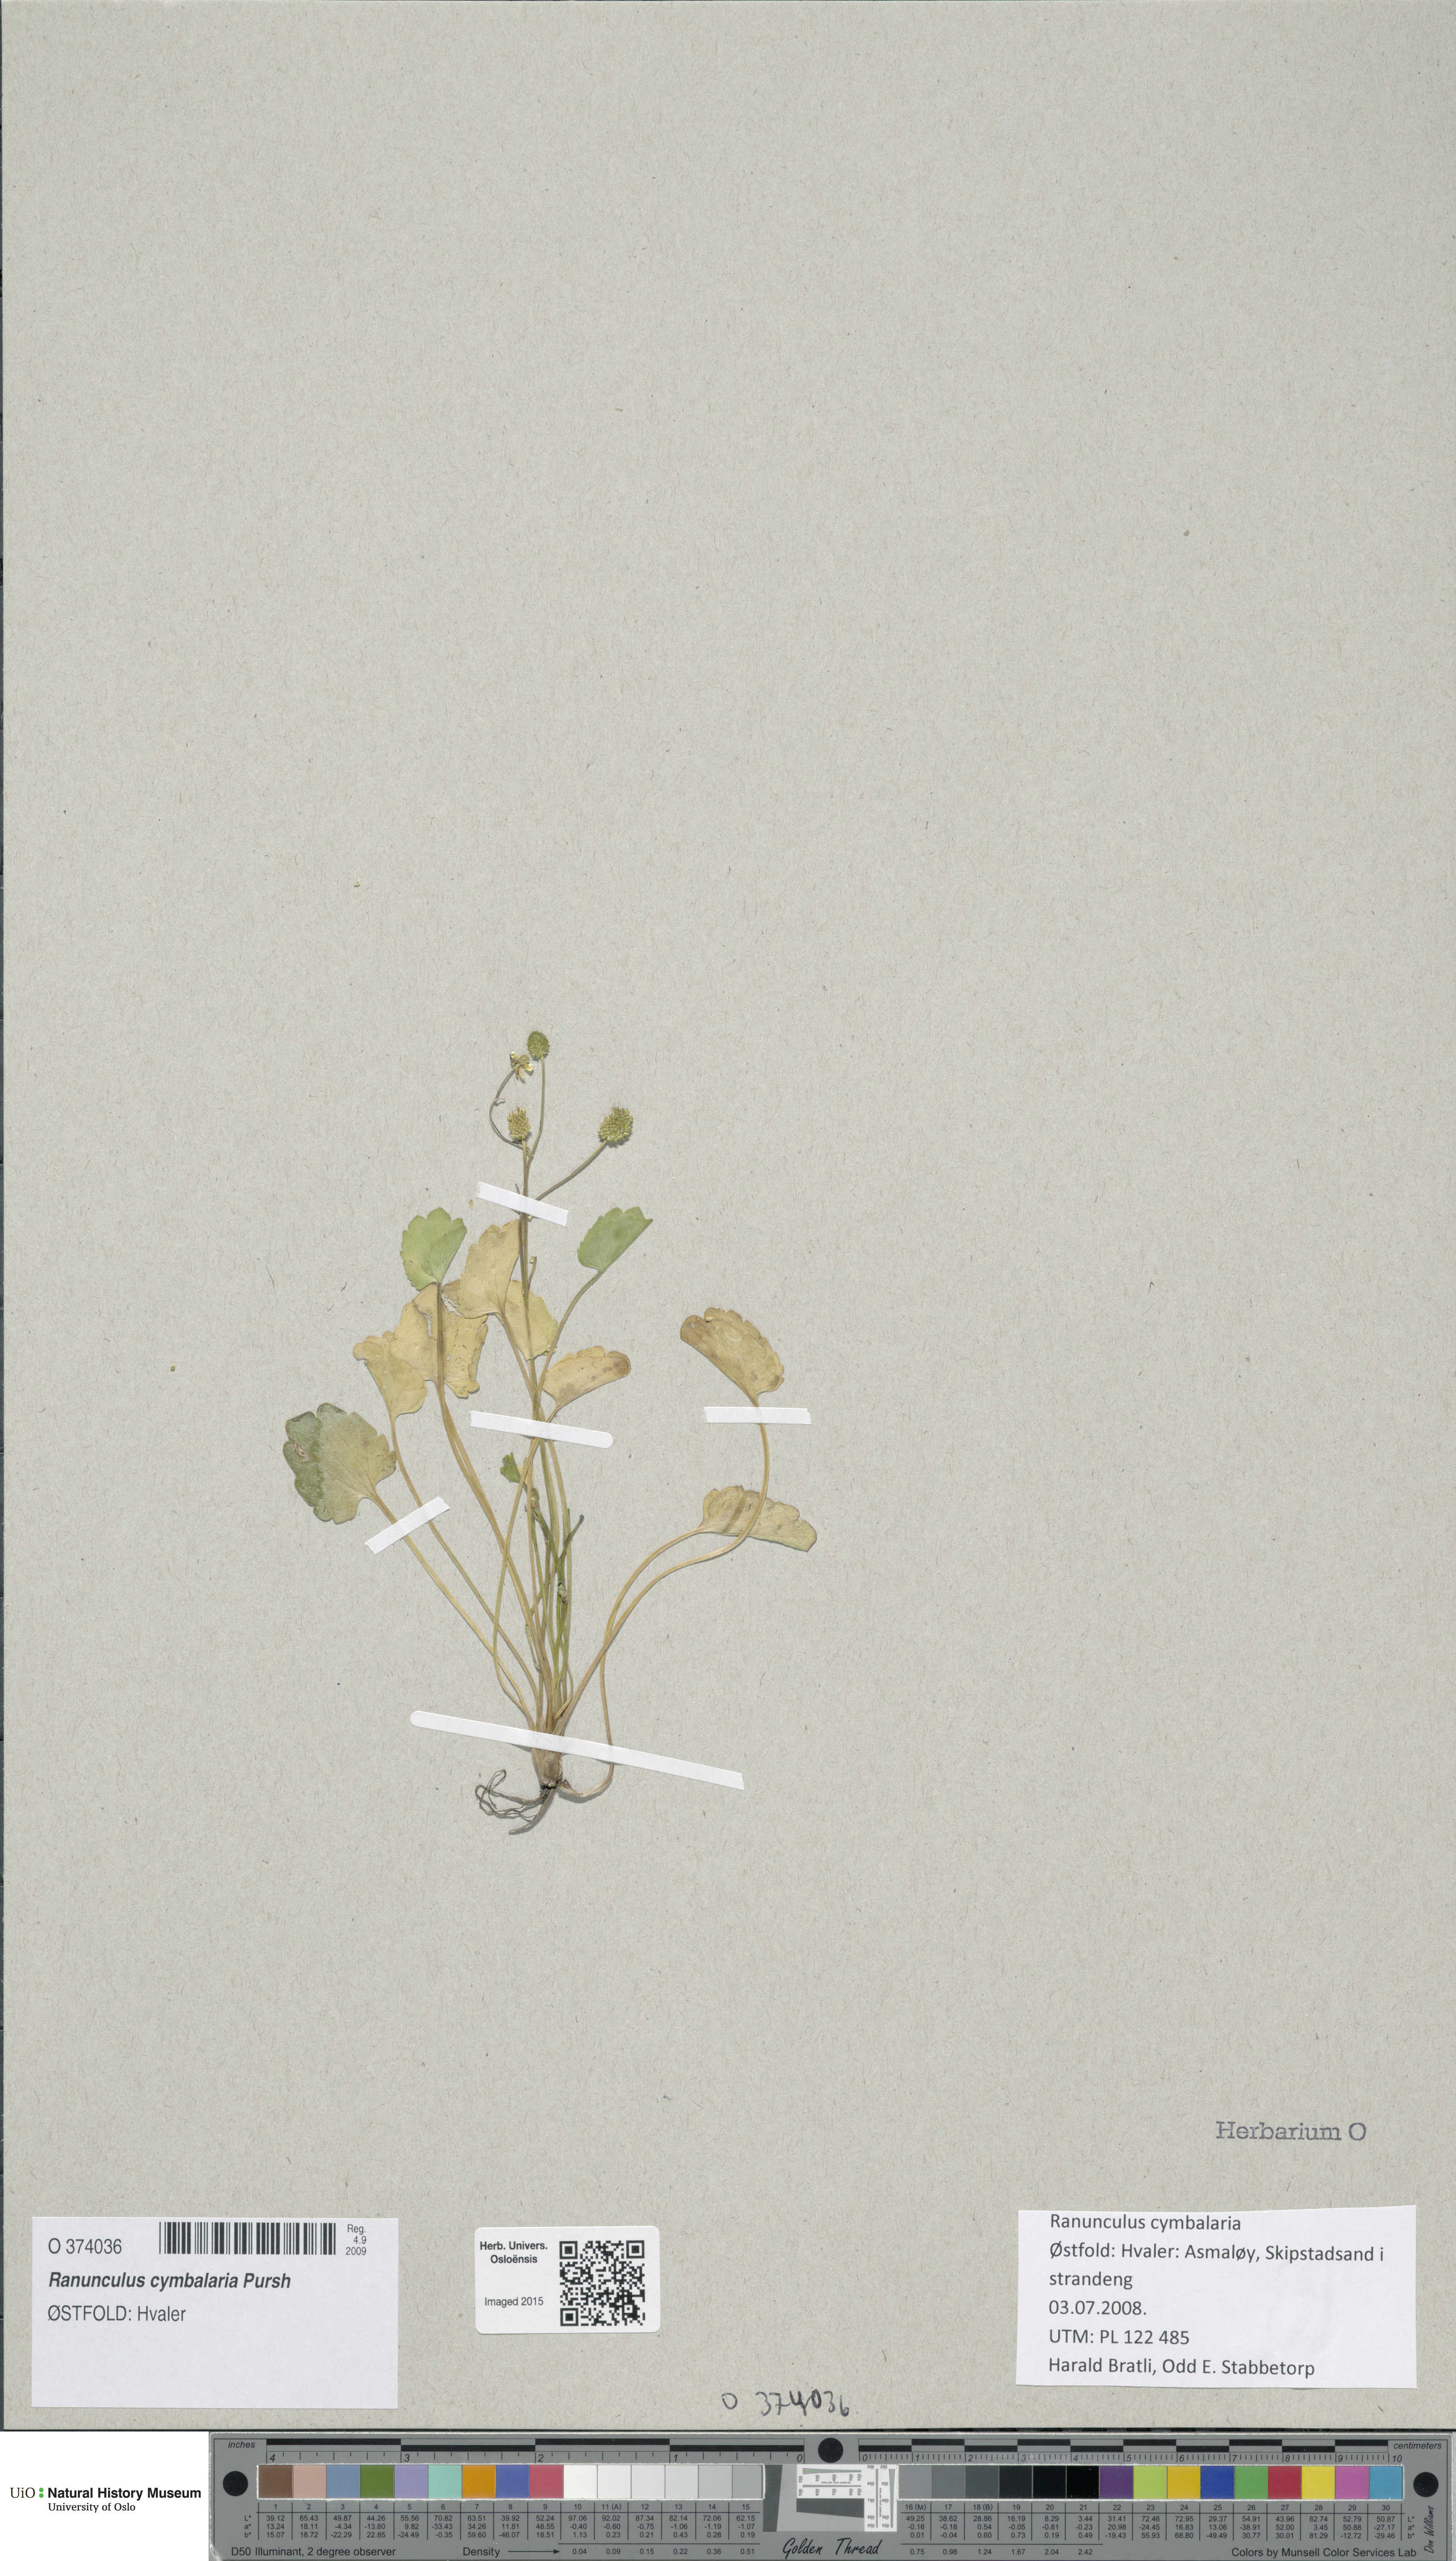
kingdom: Plantae
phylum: Tracheophyta
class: Magnoliopsida
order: Ranunculales
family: Ranunculaceae
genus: Halerpestes
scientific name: Halerpestes cymbalaria
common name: Seaside crowfoot
